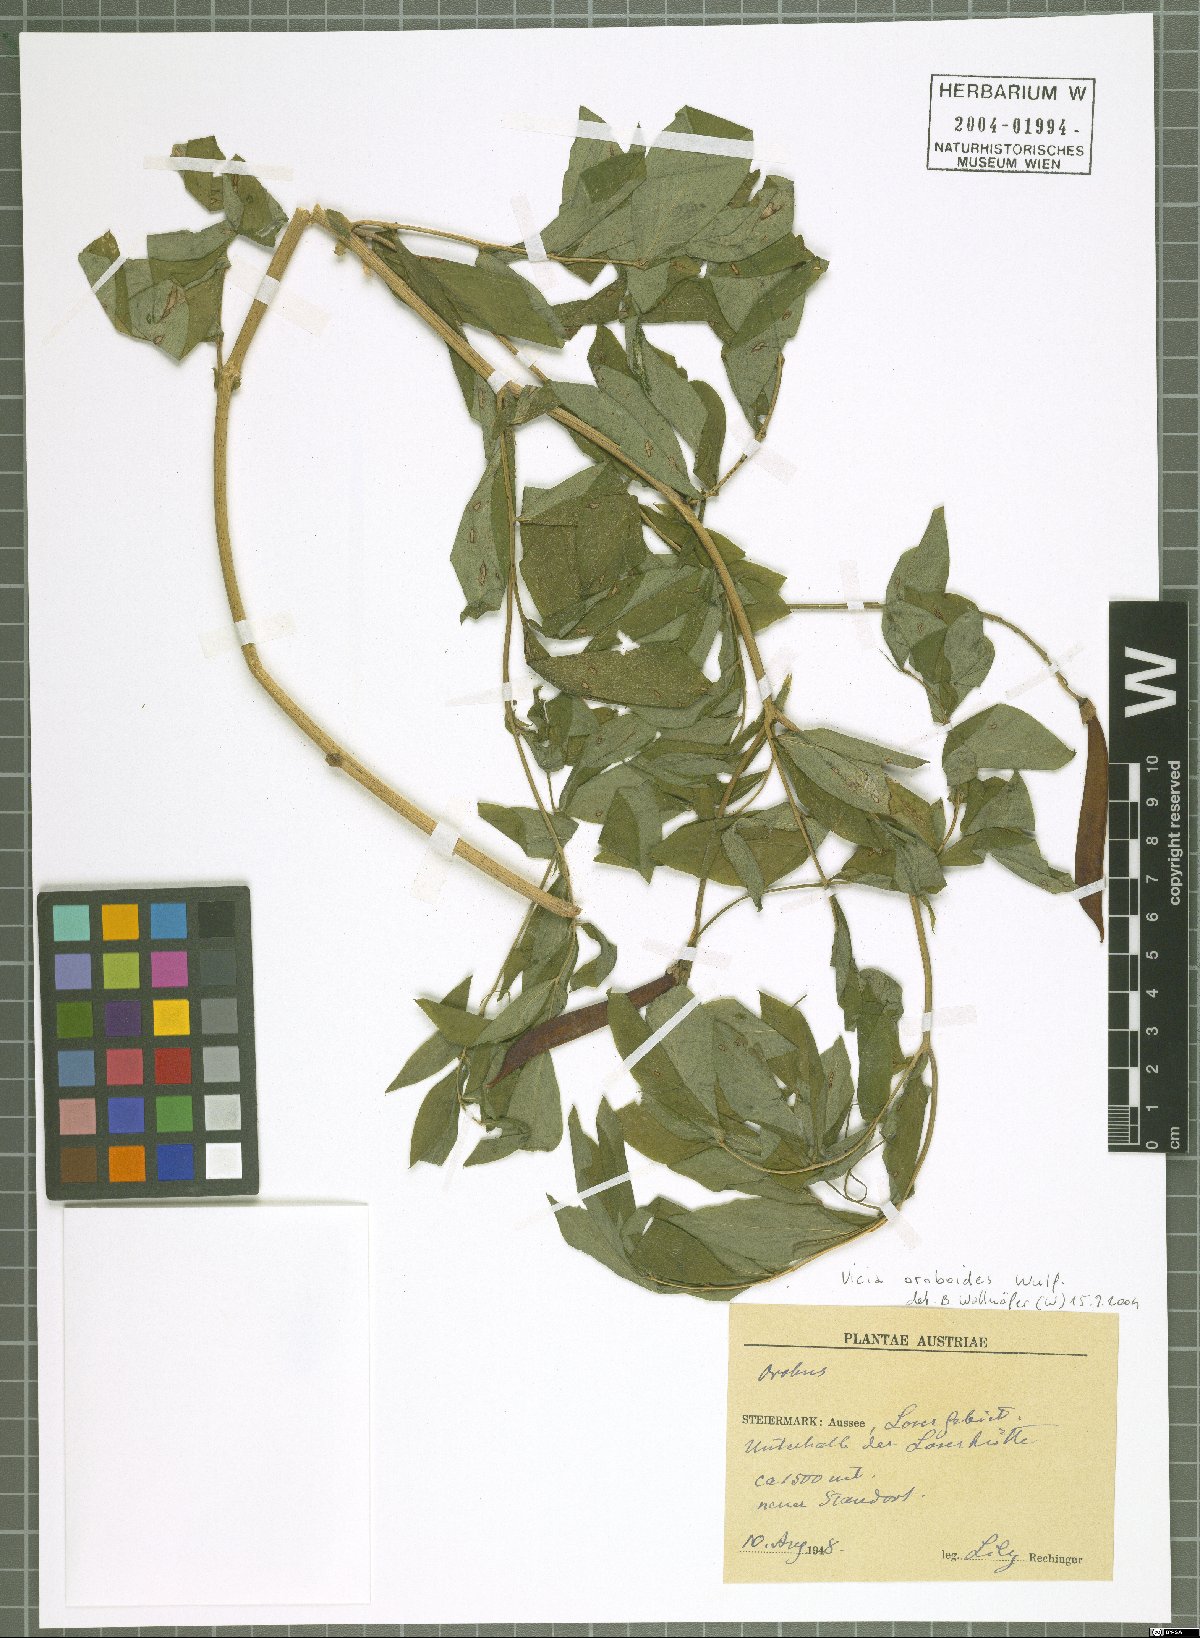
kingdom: Plantae
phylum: Tracheophyta
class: Magnoliopsida
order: Fabales
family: Fabaceae
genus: Vicia
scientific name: Vicia oroboides
